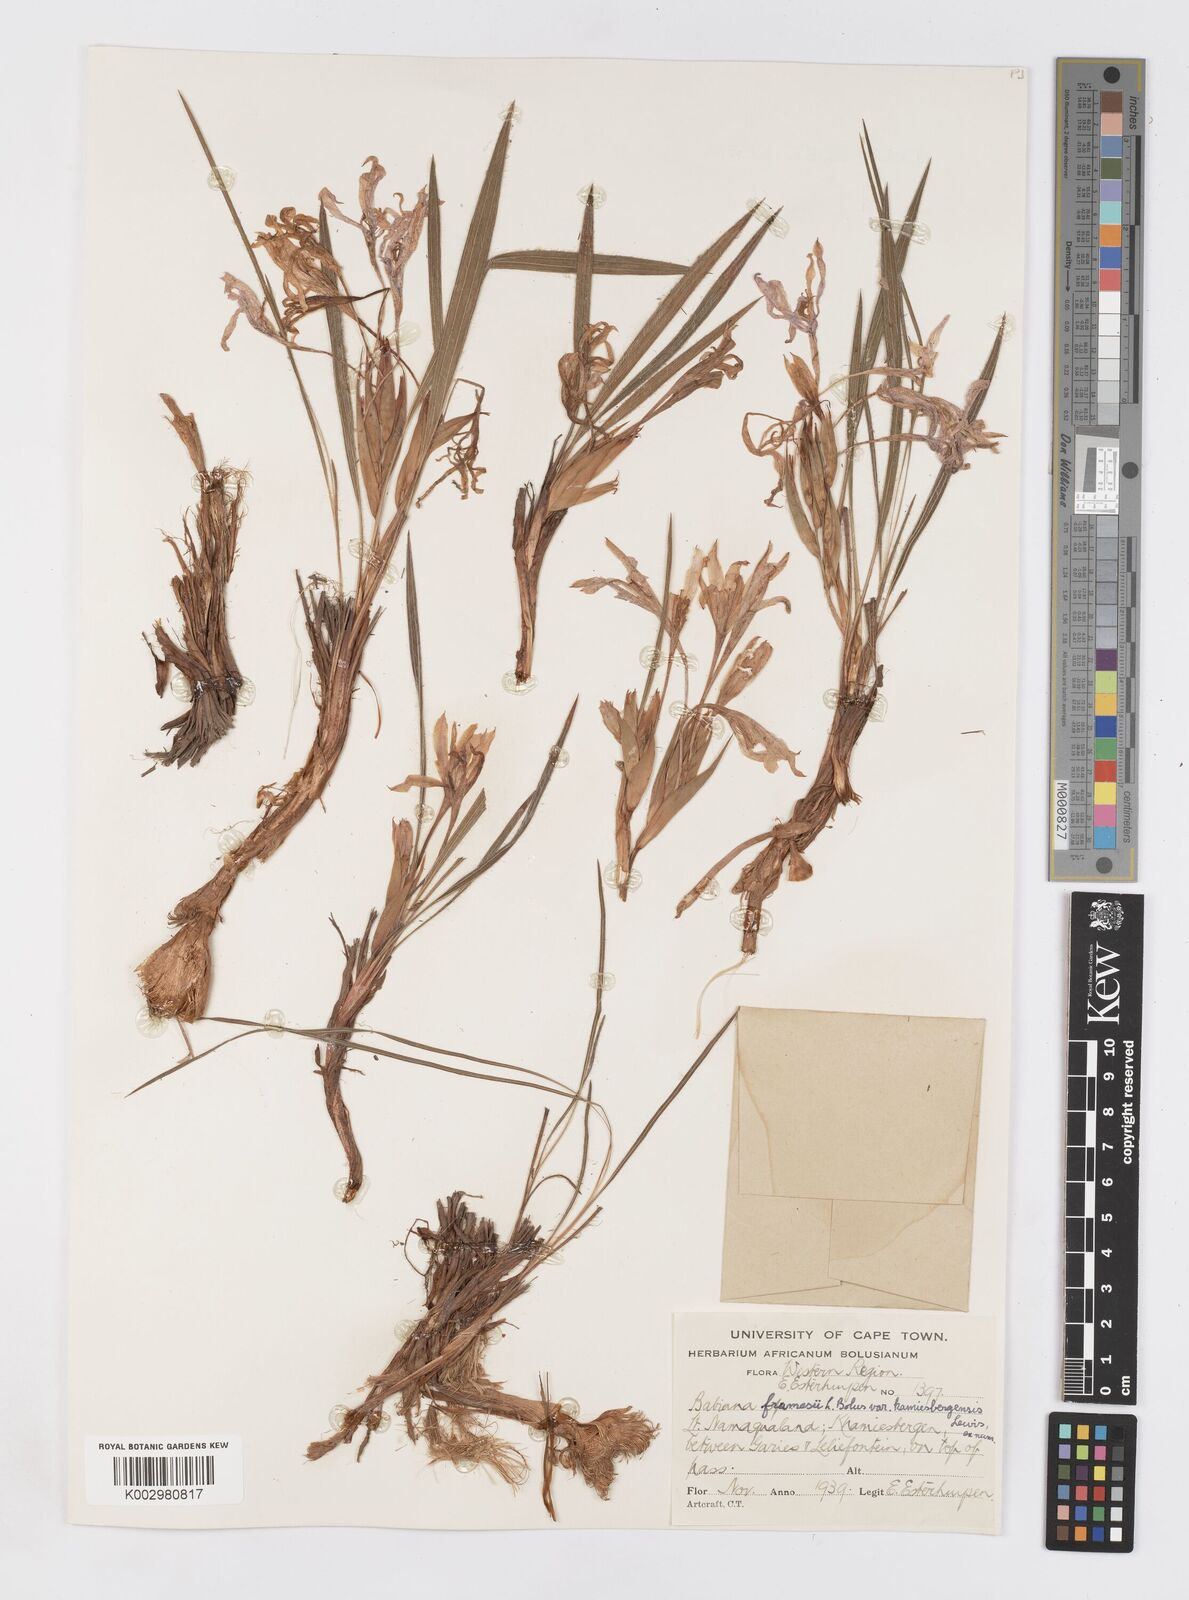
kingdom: Plantae
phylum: Tracheophyta
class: Liliopsida
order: Asparagales
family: Iridaceae
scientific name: Iridaceae
